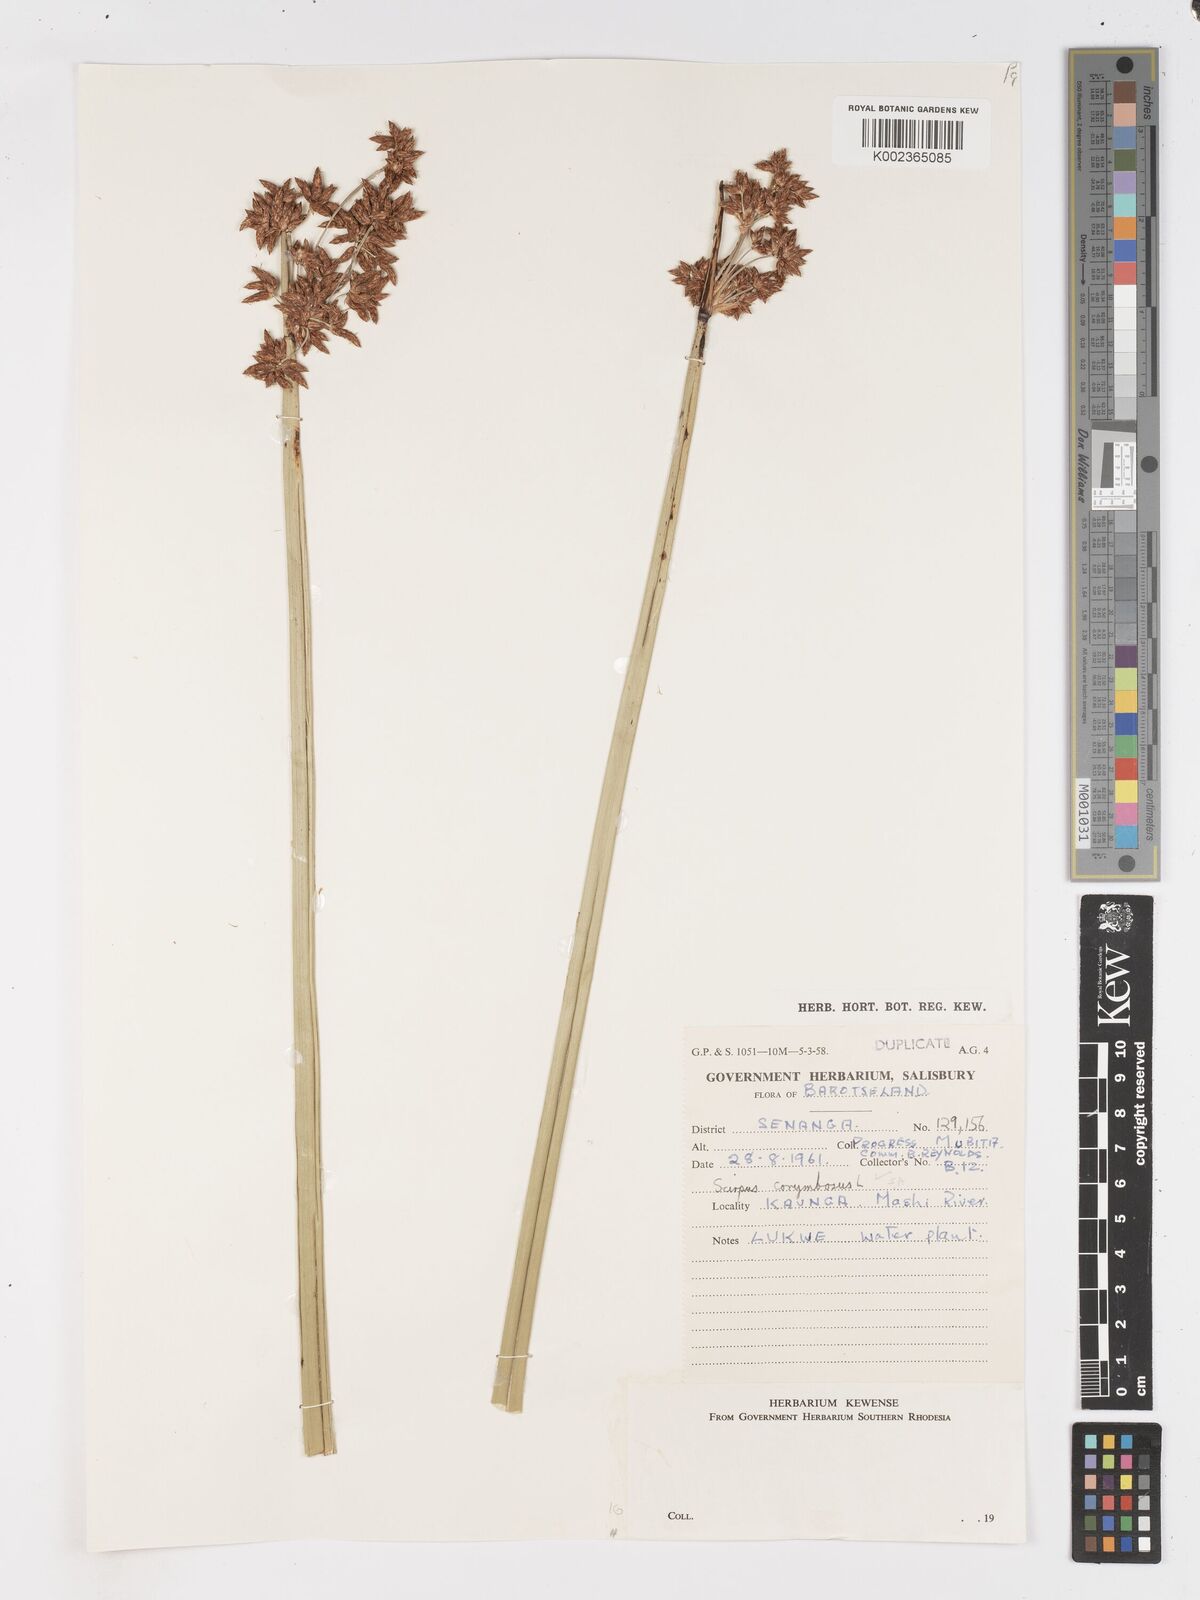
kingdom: Plantae
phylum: Tracheophyta
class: Liliopsida
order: Poales
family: Cyperaceae
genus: Schoenoplectiella
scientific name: Schoenoplectiella corymbosa
